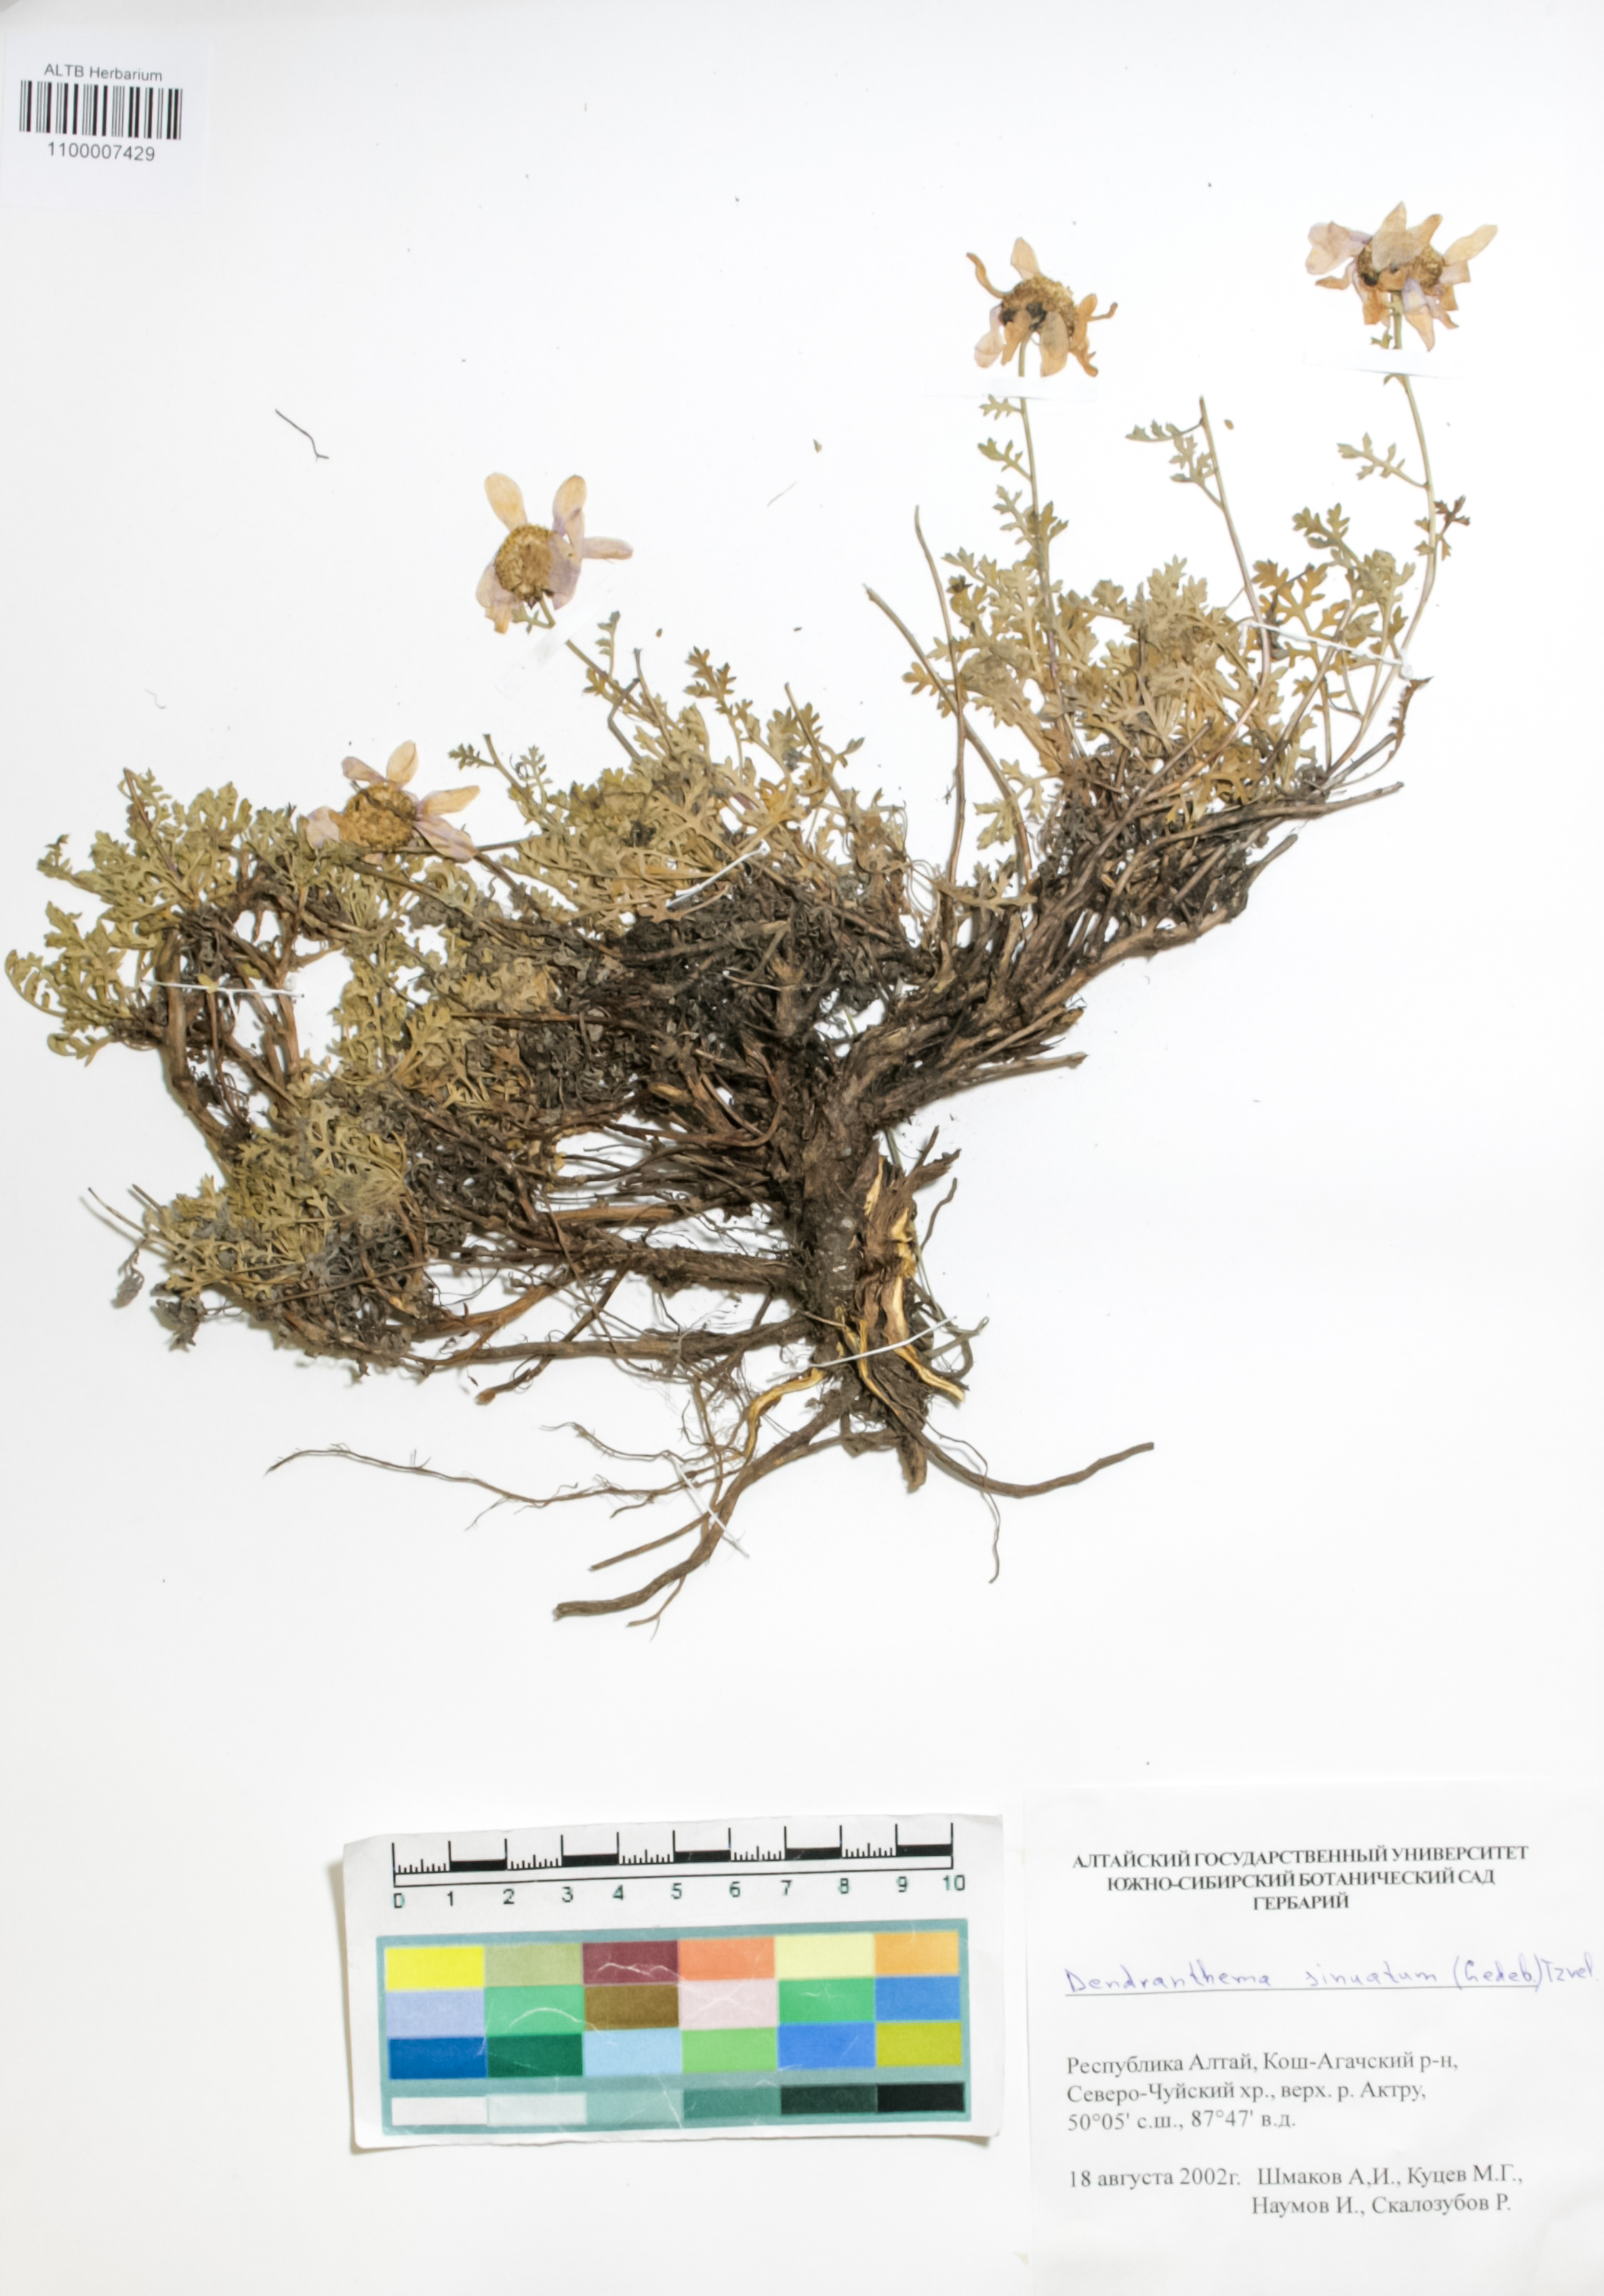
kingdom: Plantae
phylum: Tracheophyta
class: Magnoliopsida
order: Asterales
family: Asteraceae
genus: Chrysanthemum
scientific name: Chrysanthemum sinuatum
